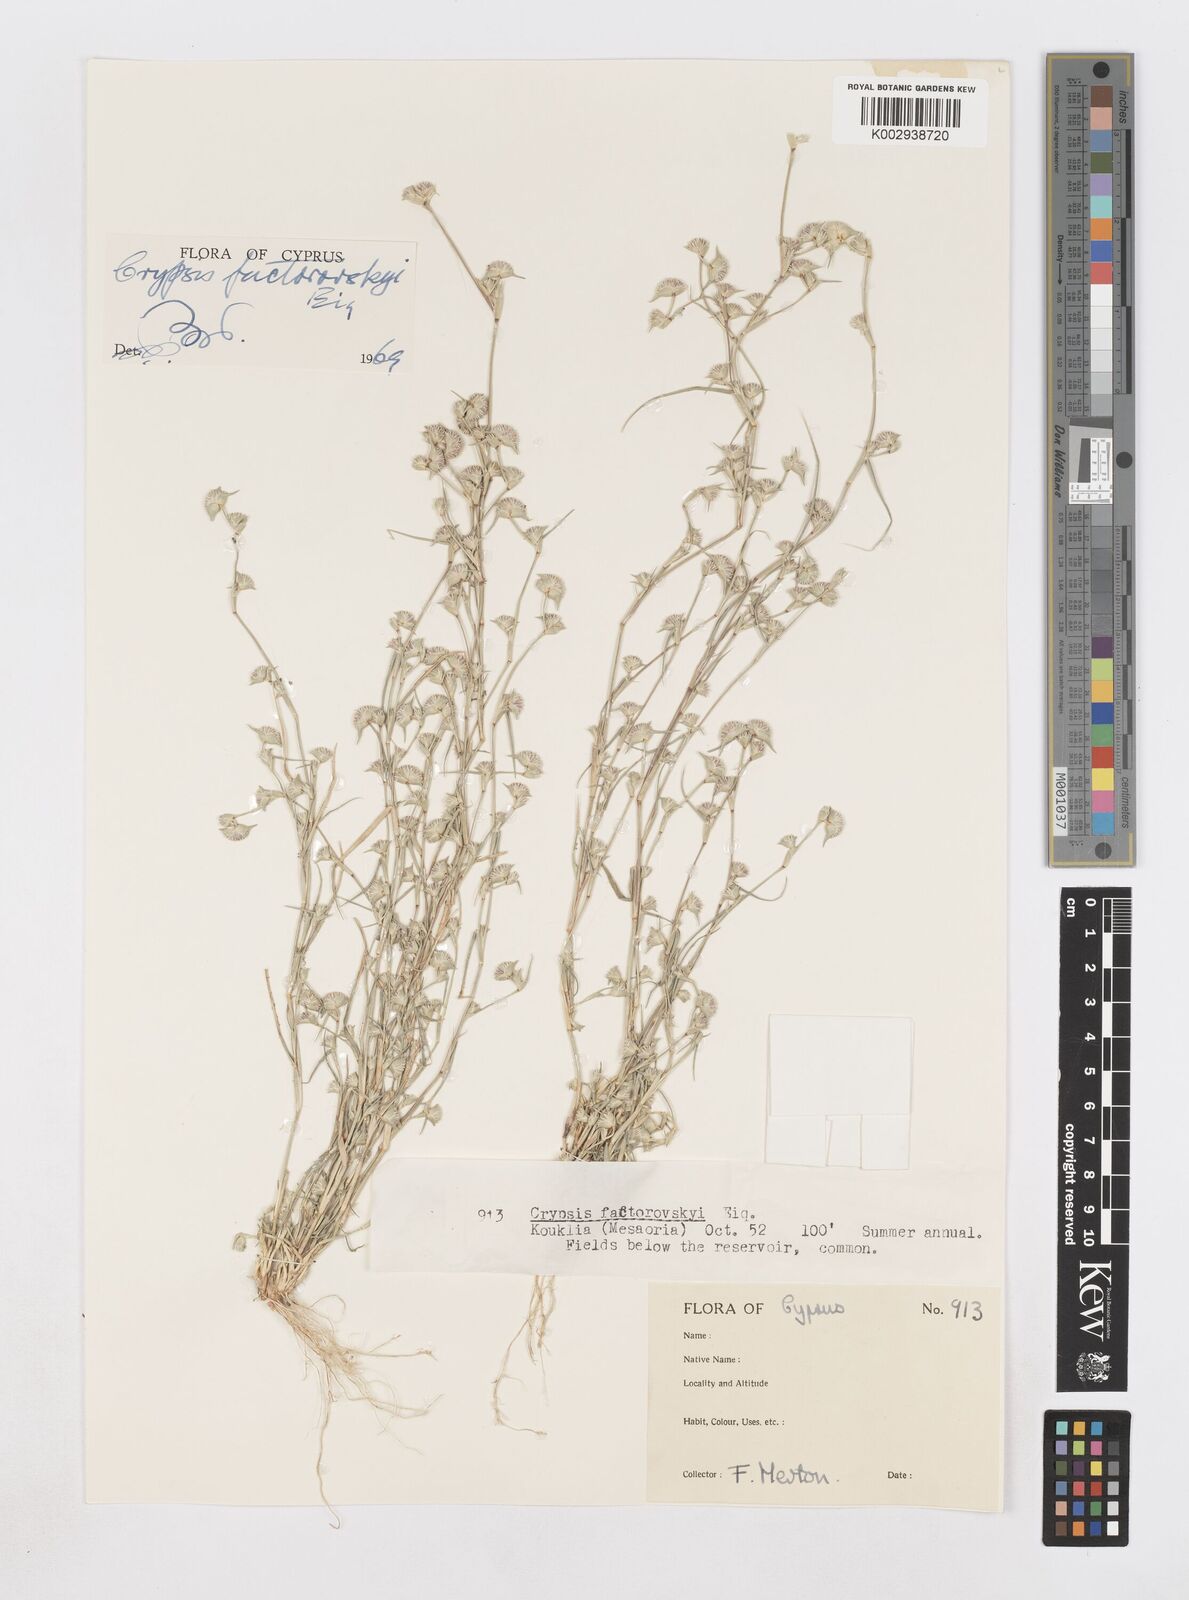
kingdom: Plantae
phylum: Tracheophyta
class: Liliopsida
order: Poales
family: Poaceae
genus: Sporobolus
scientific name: Sporobolus factorovskyi
